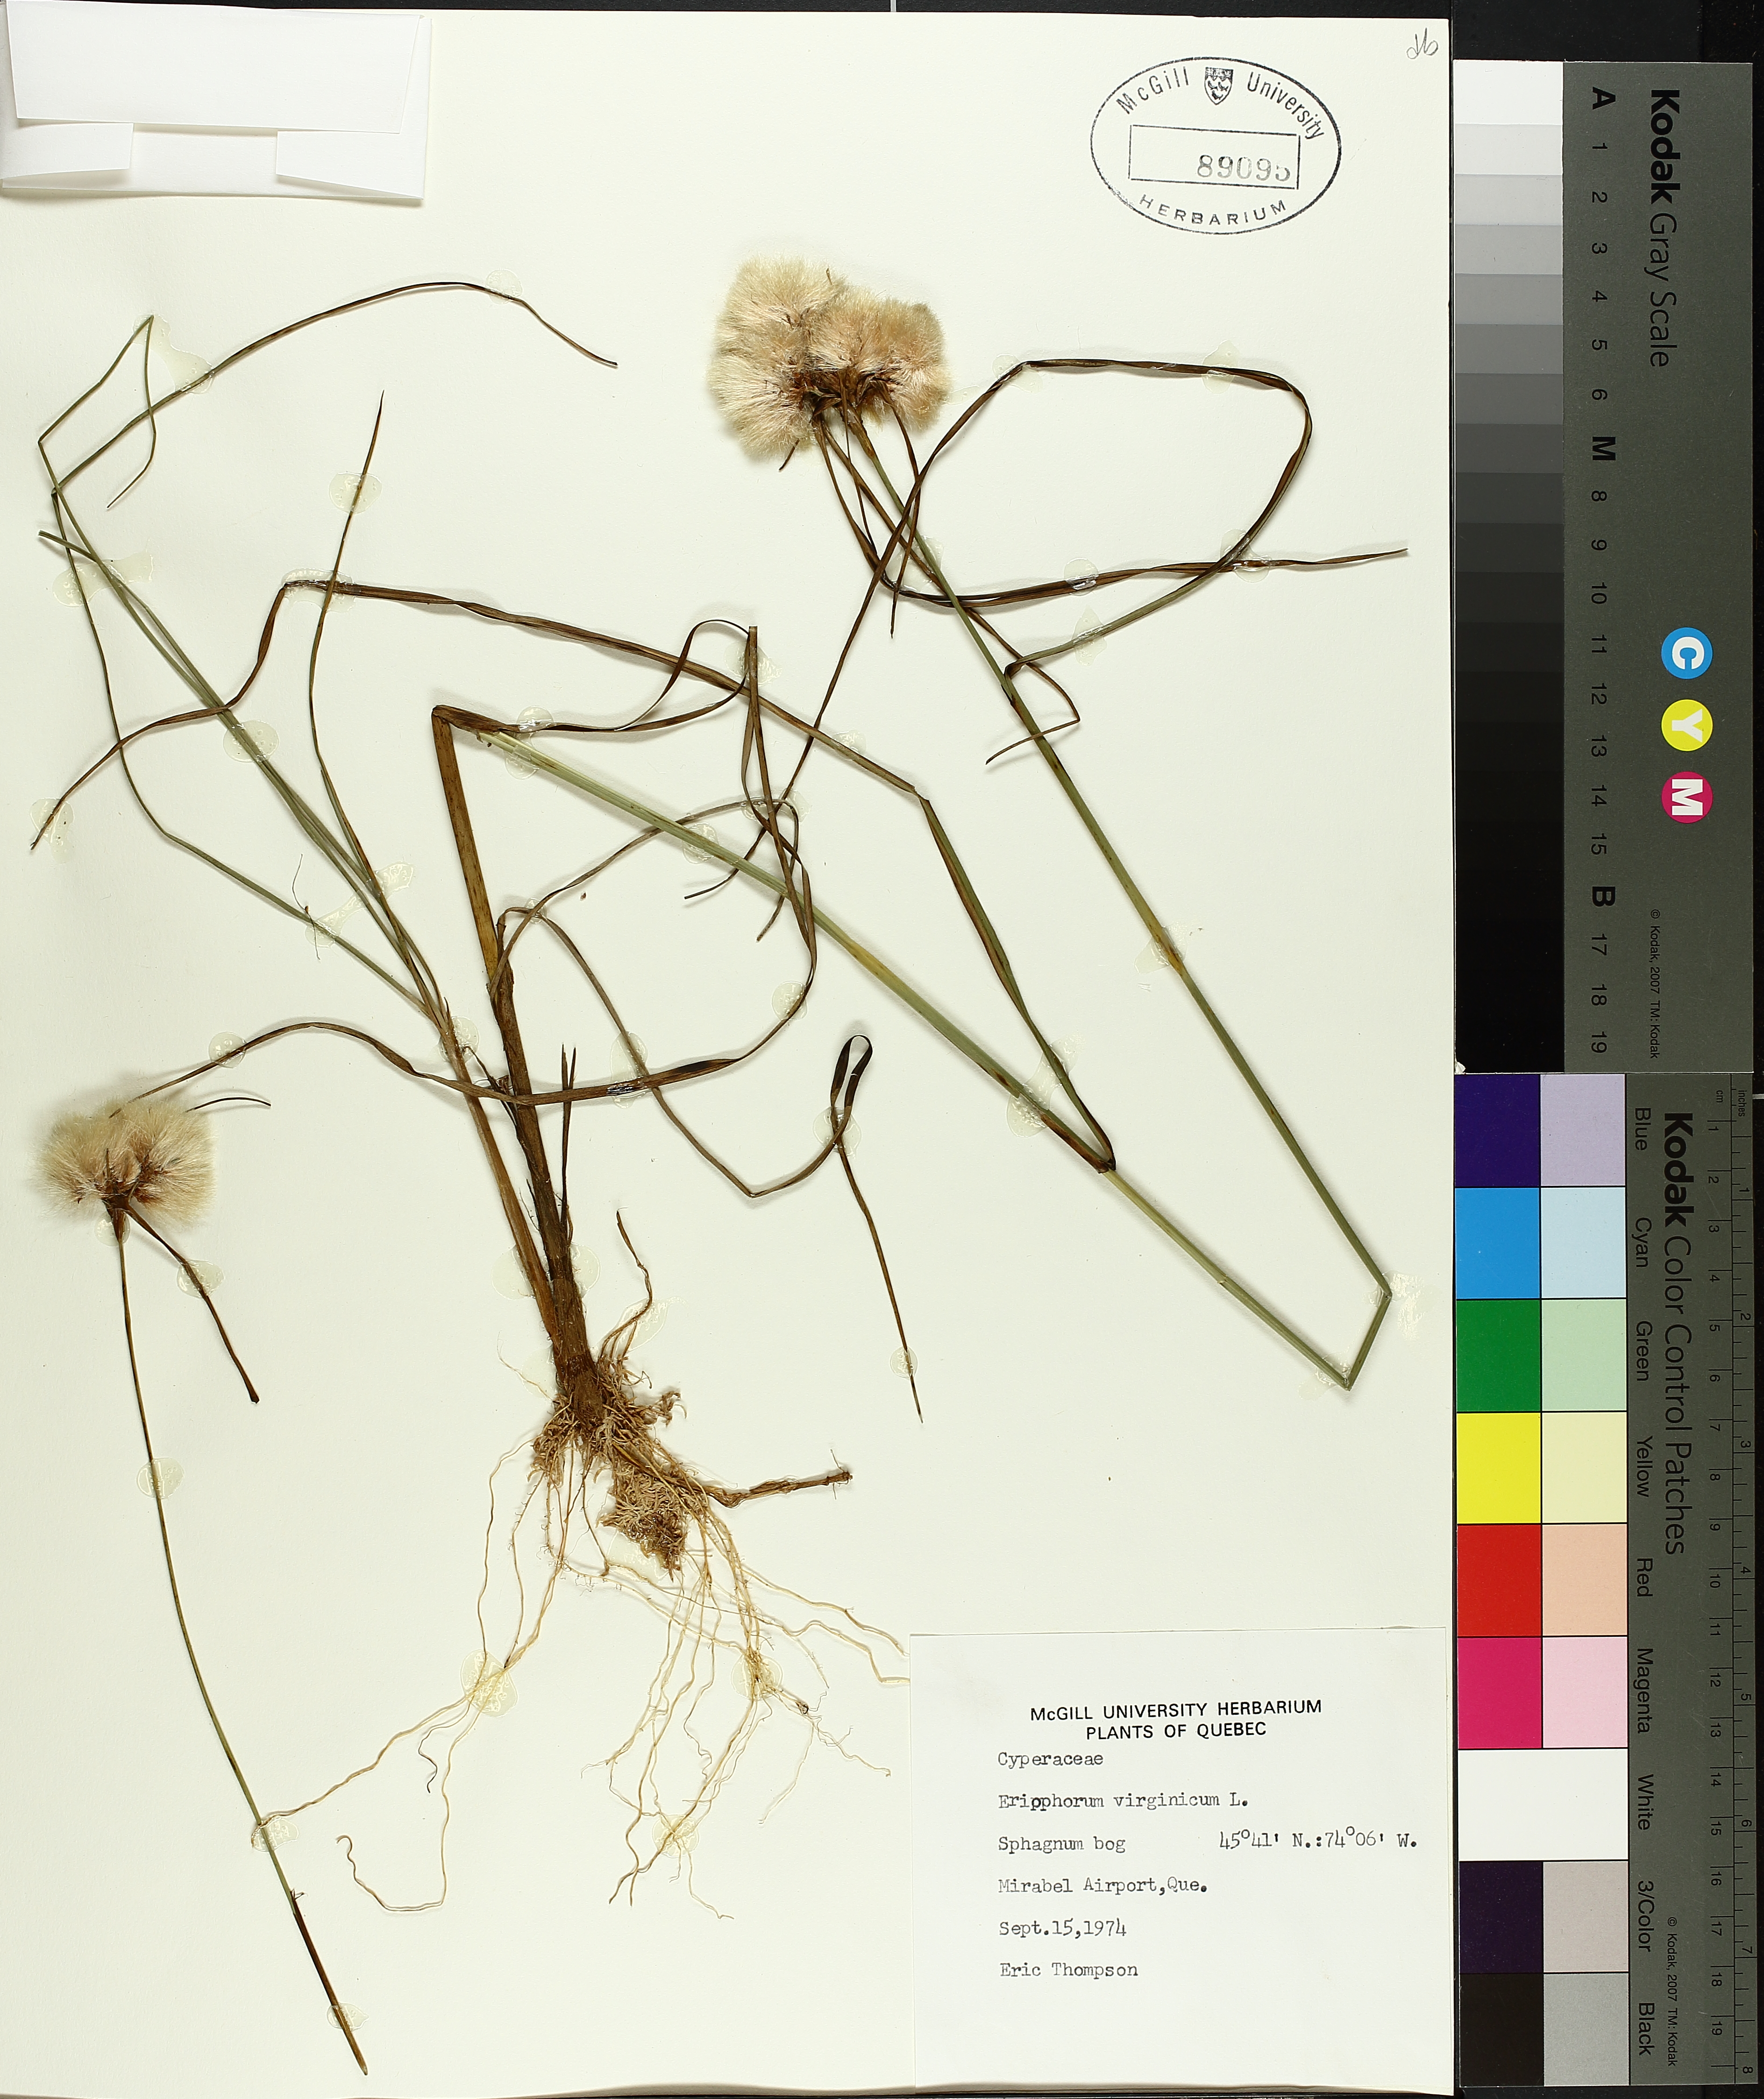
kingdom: Plantae
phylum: Tracheophyta
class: Liliopsida
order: Poales
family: Cyperaceae
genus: Eriophorum
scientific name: Eriophorum virginicum
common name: Tawny cottongrass
